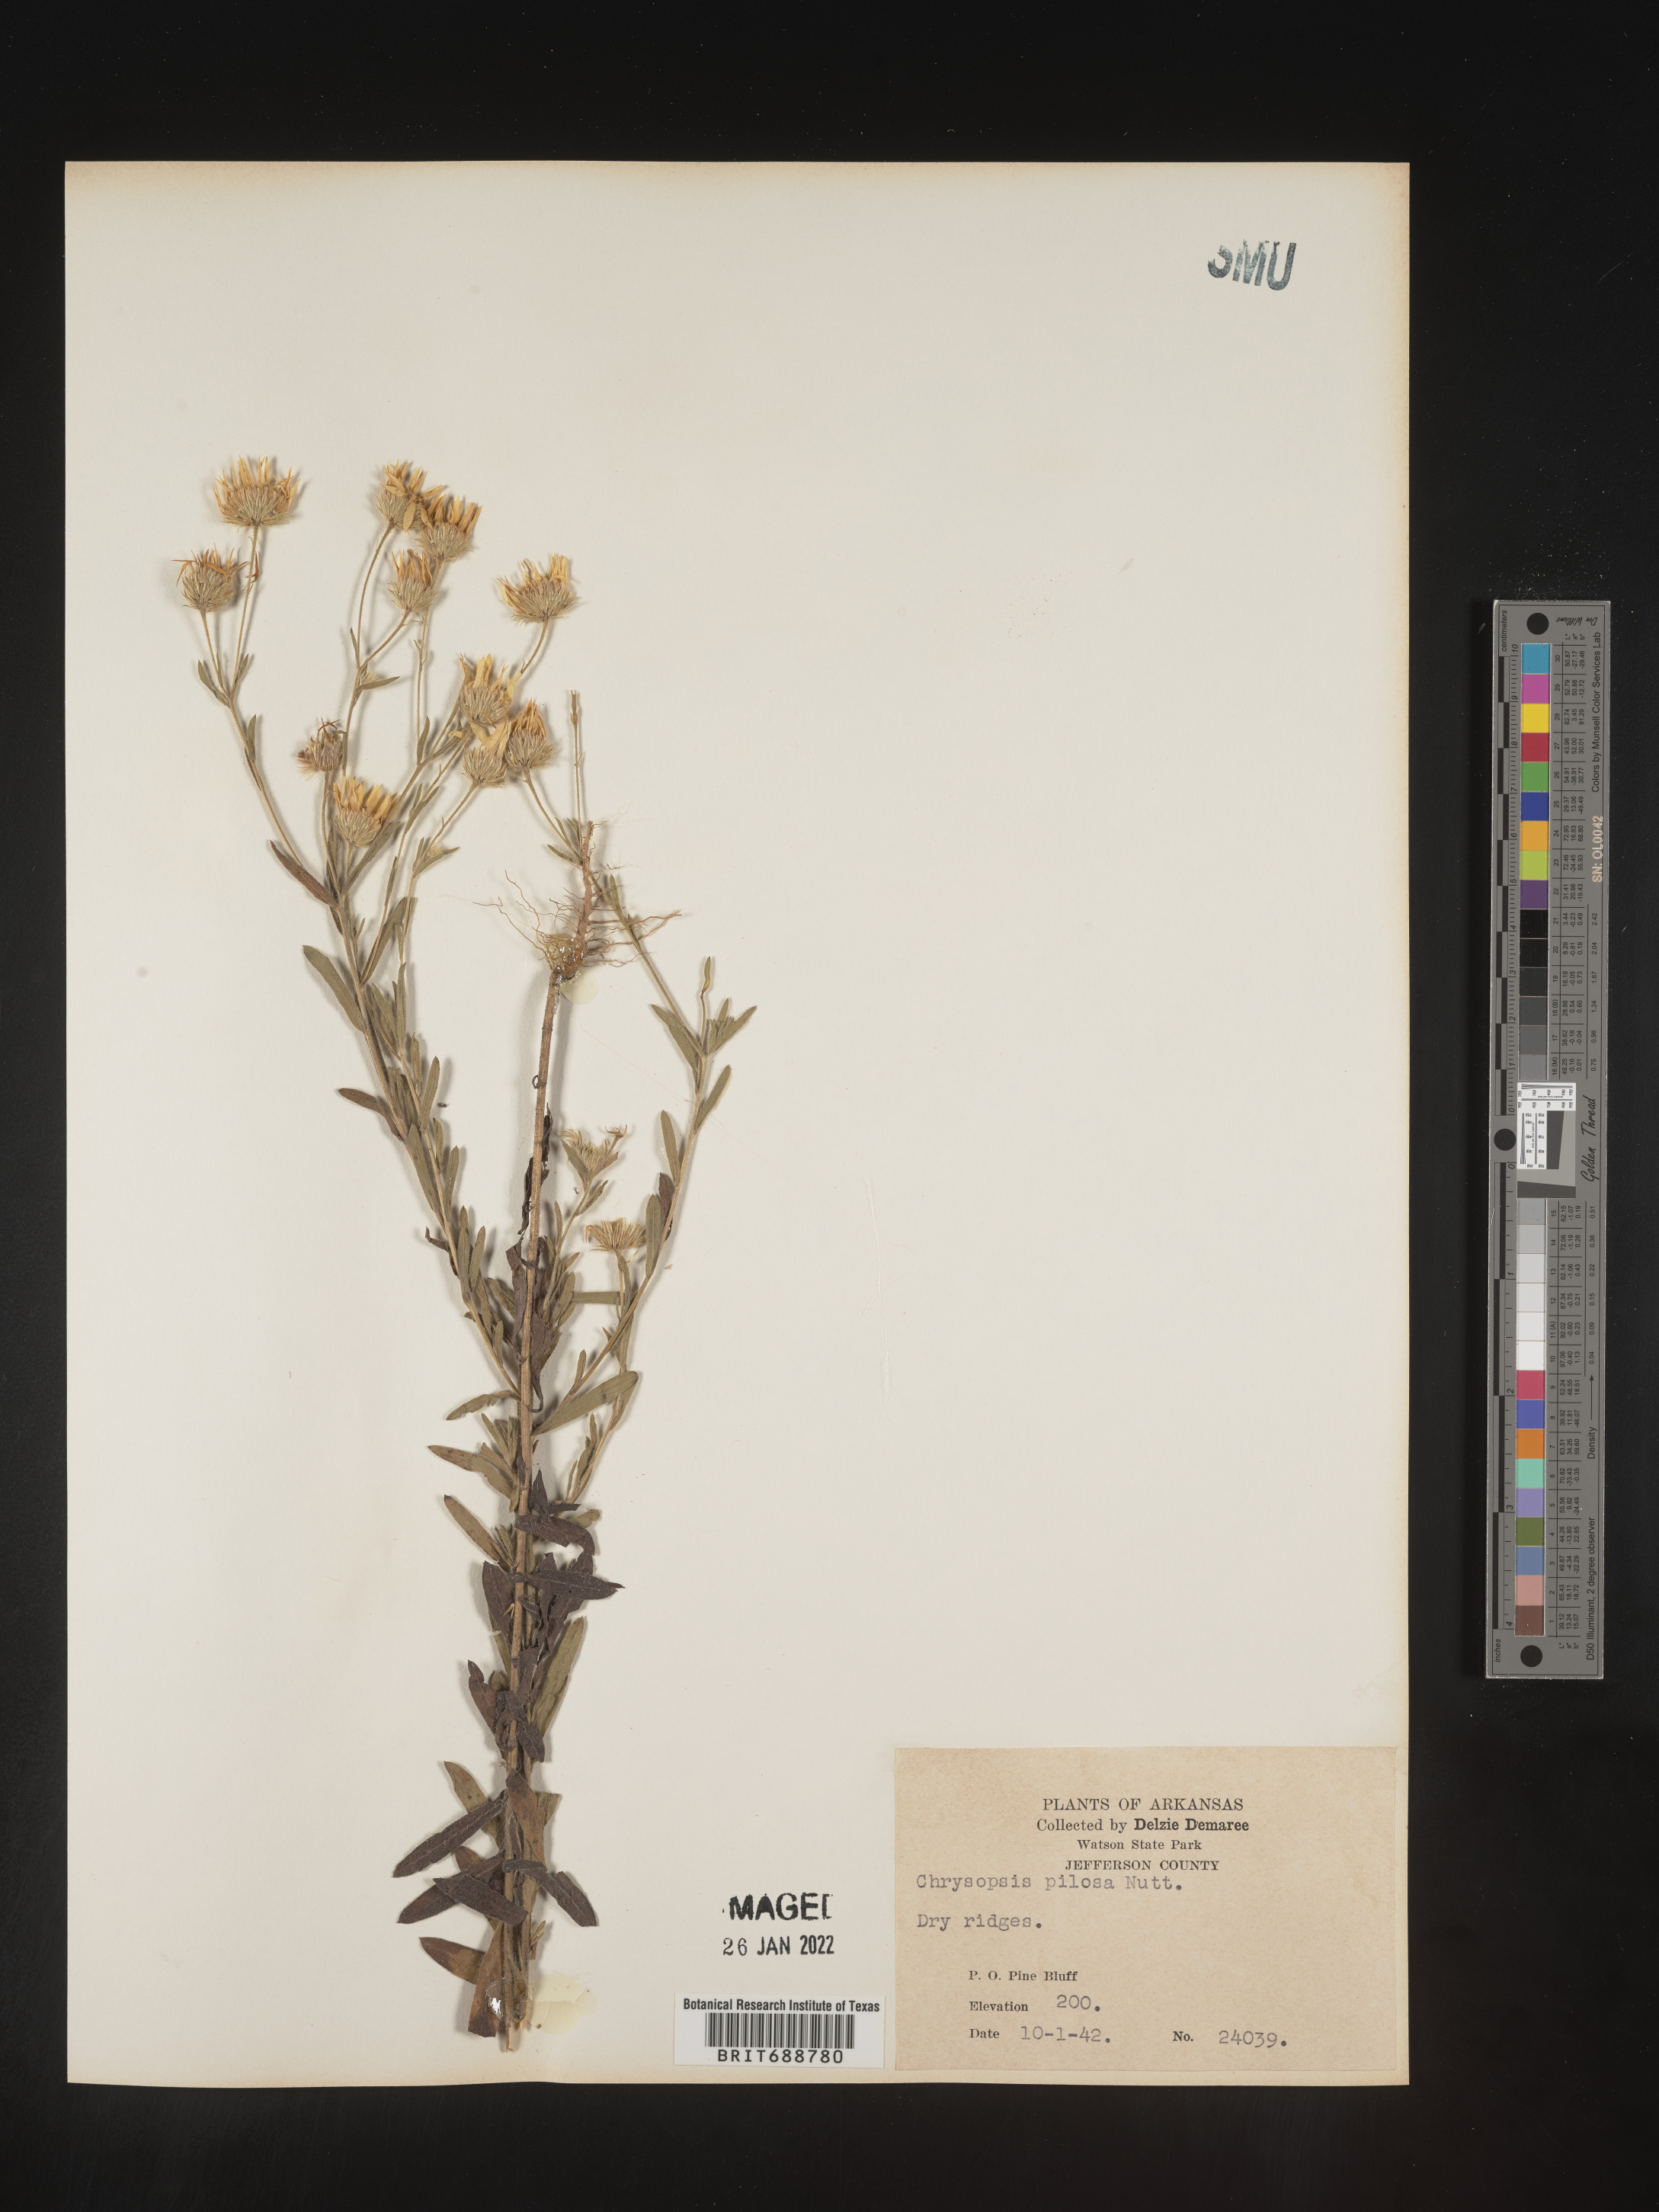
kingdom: Plantae
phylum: Tracheophyta
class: Magnoliopsida
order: Asterales
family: Asteraceae
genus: Bradburia
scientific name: Bradburia pilosa
